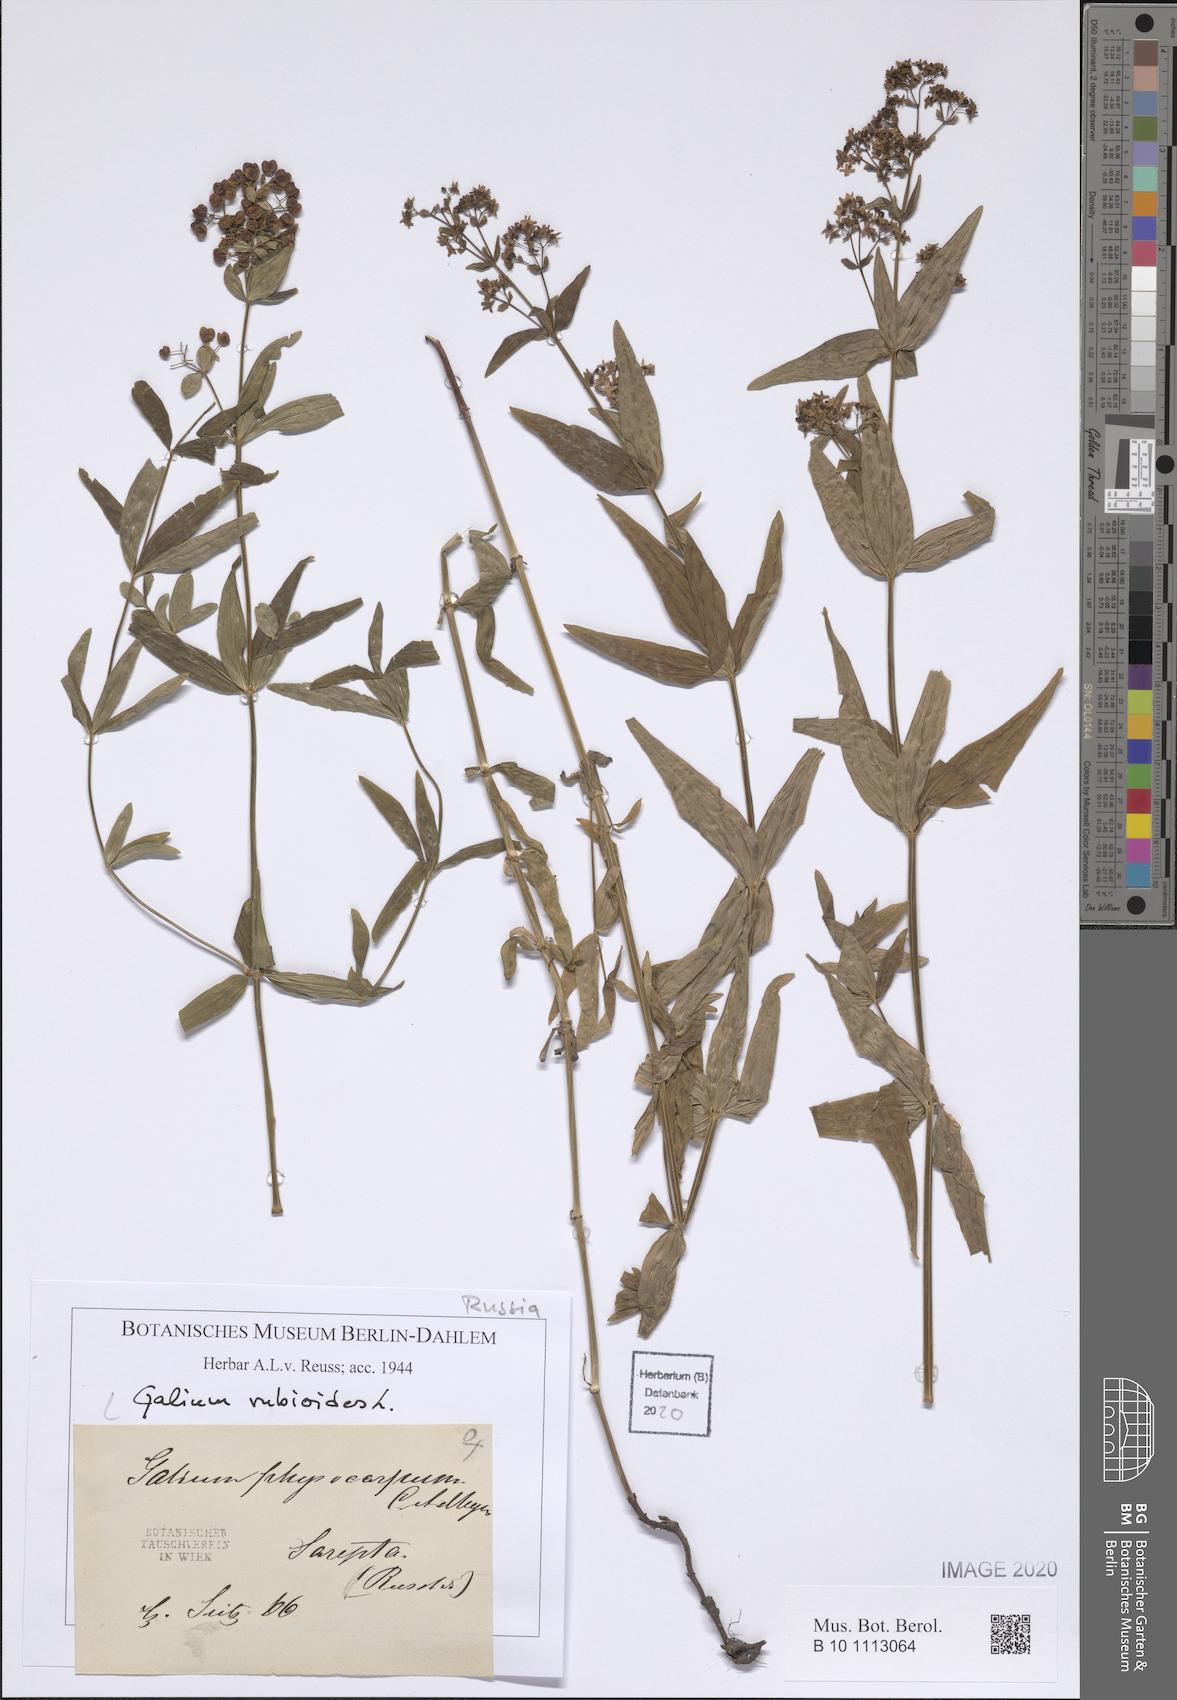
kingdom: Plantae
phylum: Tracheophyta
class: Magnoliopsida
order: Gentianales
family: Rubiaceae
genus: Galium
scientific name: Galium rubioides
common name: European bedstraw
